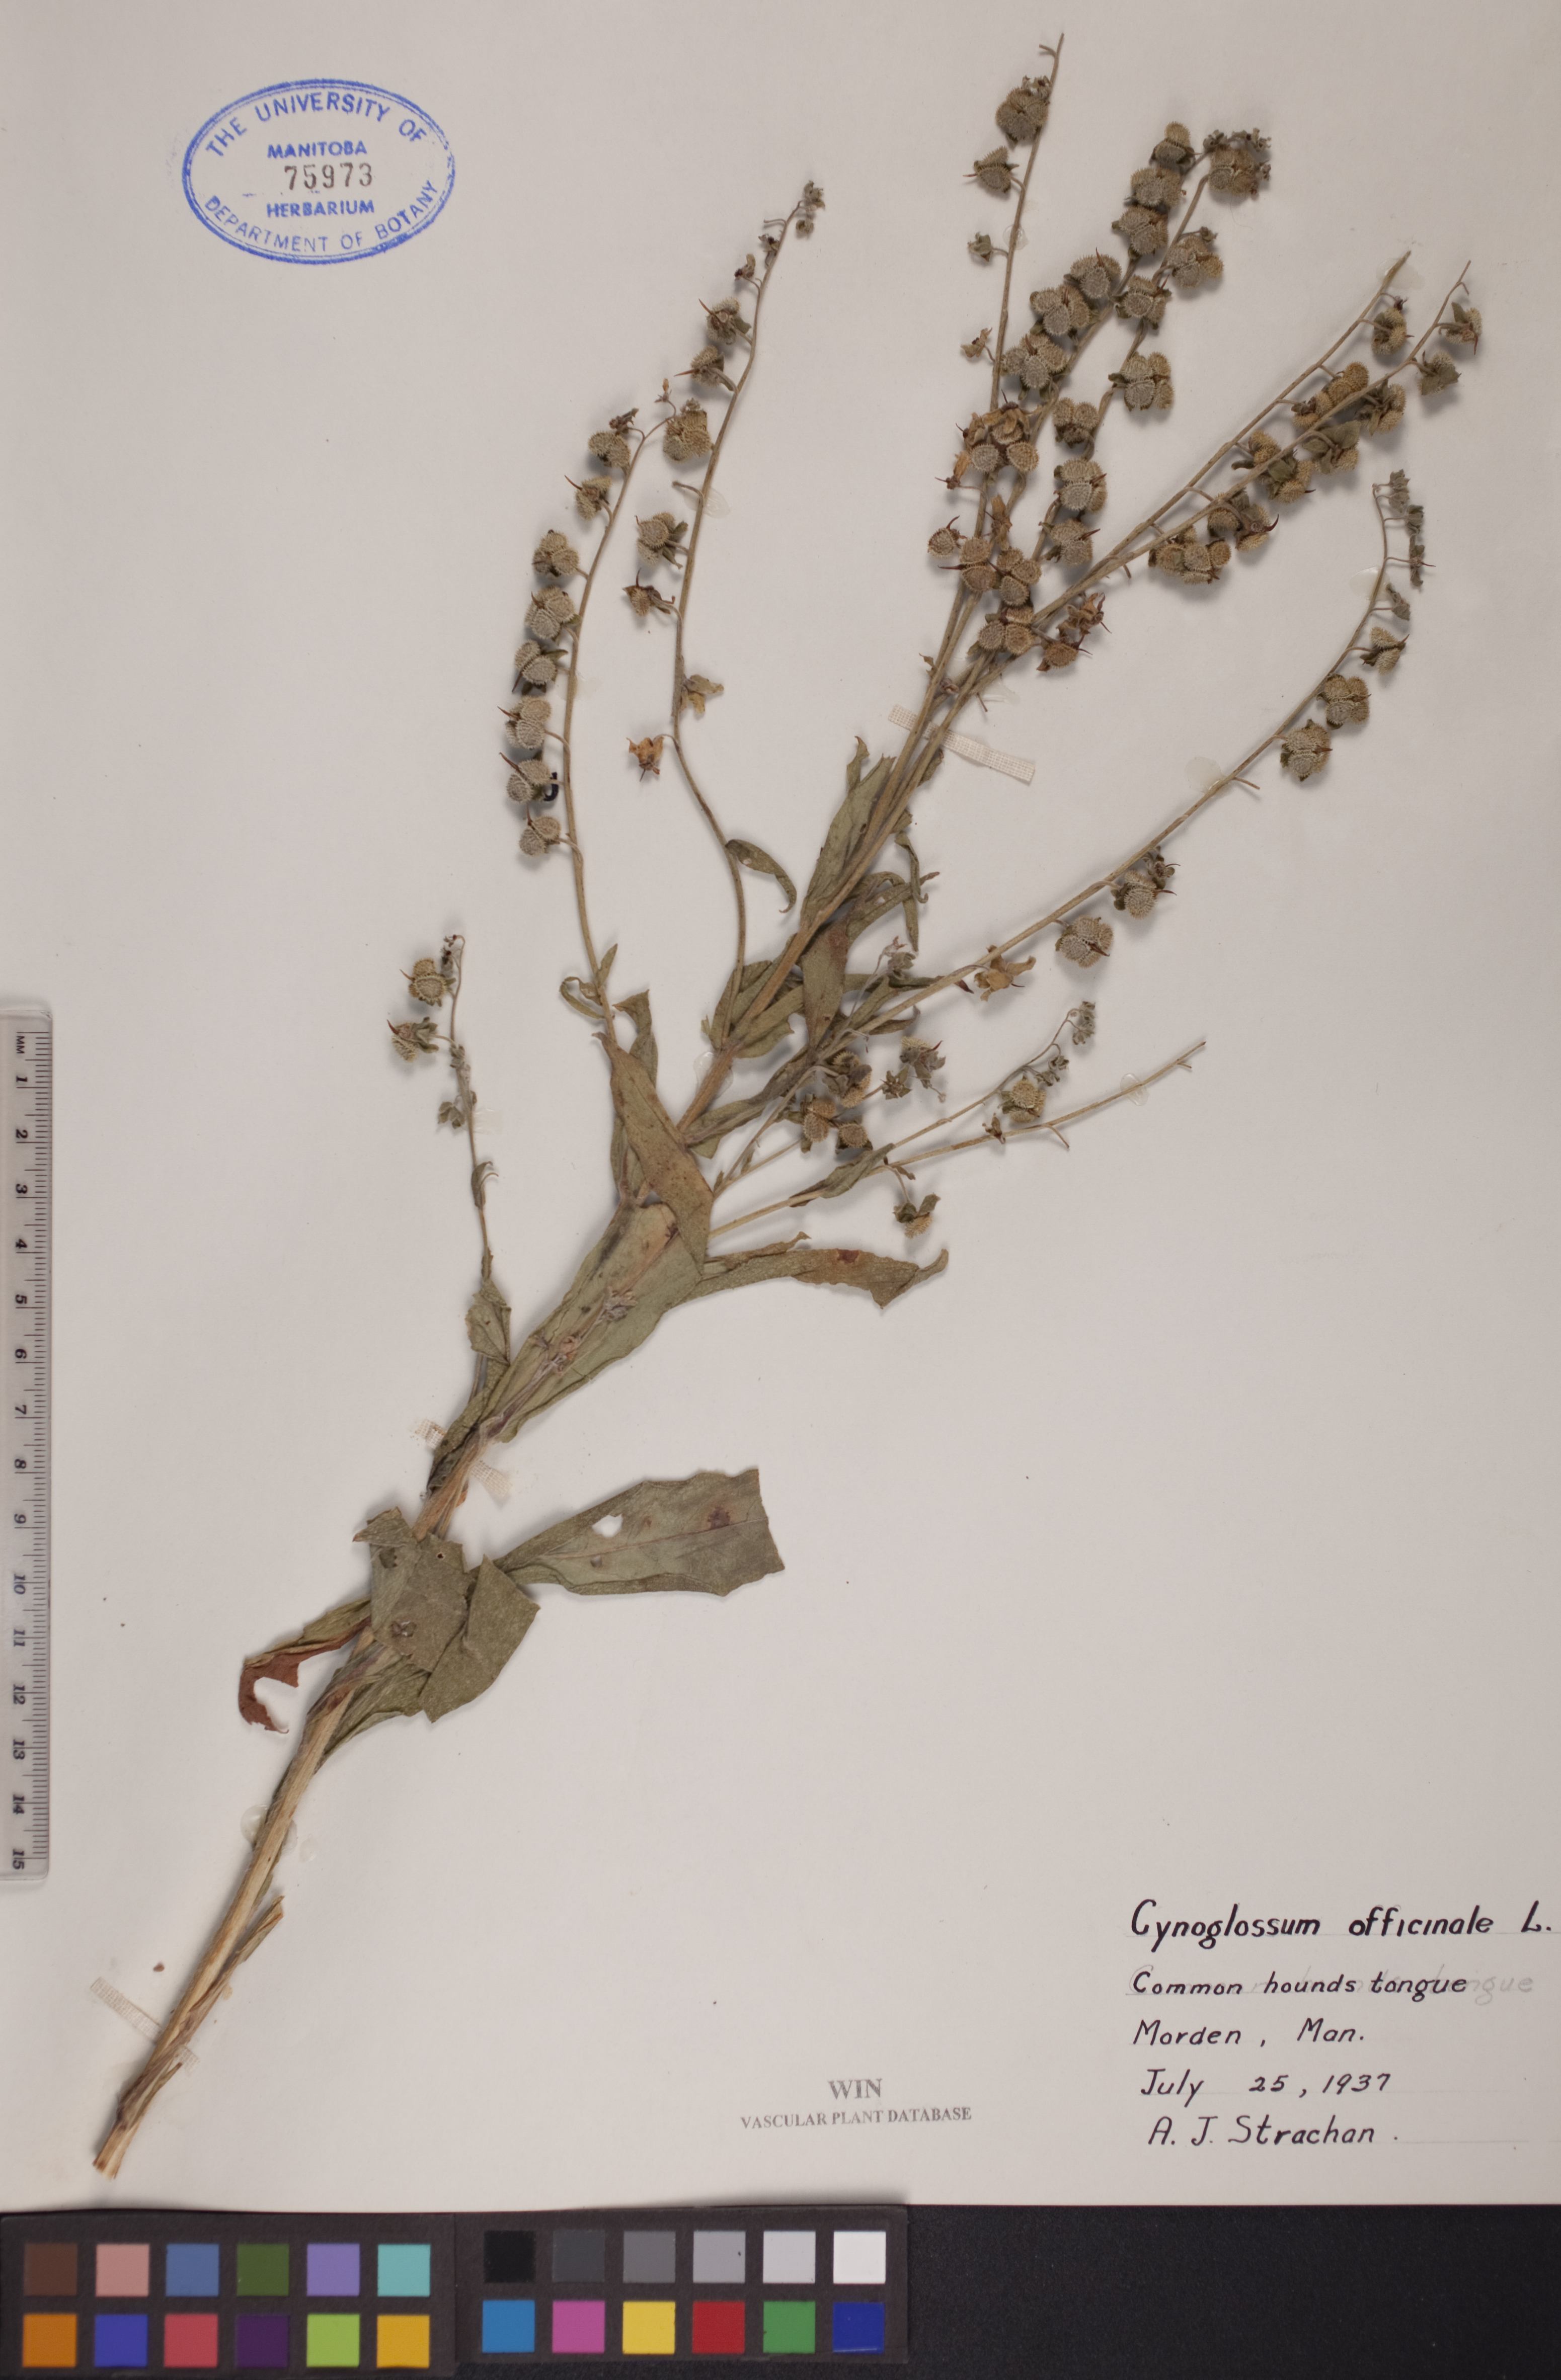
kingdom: Plantae
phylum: Tracheophyta
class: Magnoliopsida
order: Boraginales
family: Boraginaceae
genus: Cynoglossum
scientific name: Cynoglossum officinale
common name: Hound's-tongue
